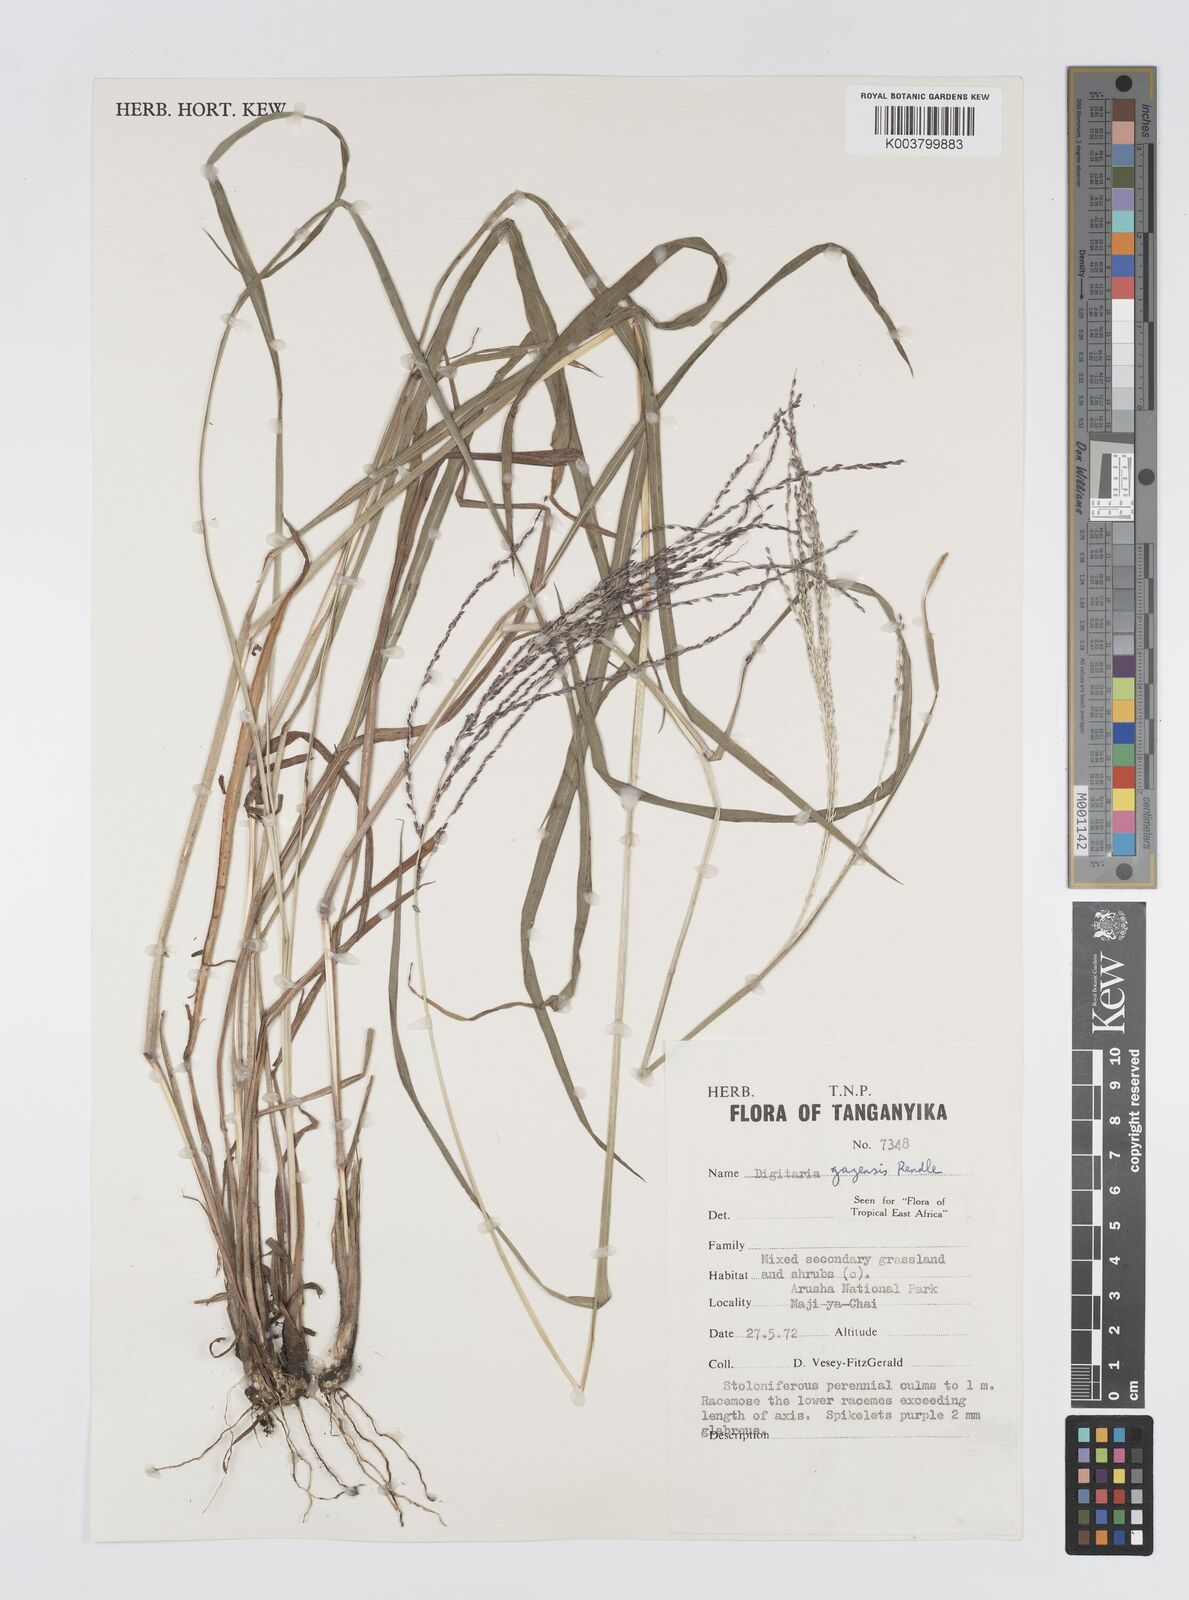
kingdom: Plantae
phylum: Tracheophyta
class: Liliopsida
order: Poales
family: Poaceae
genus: Digitaria
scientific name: Digitaria gazensis
